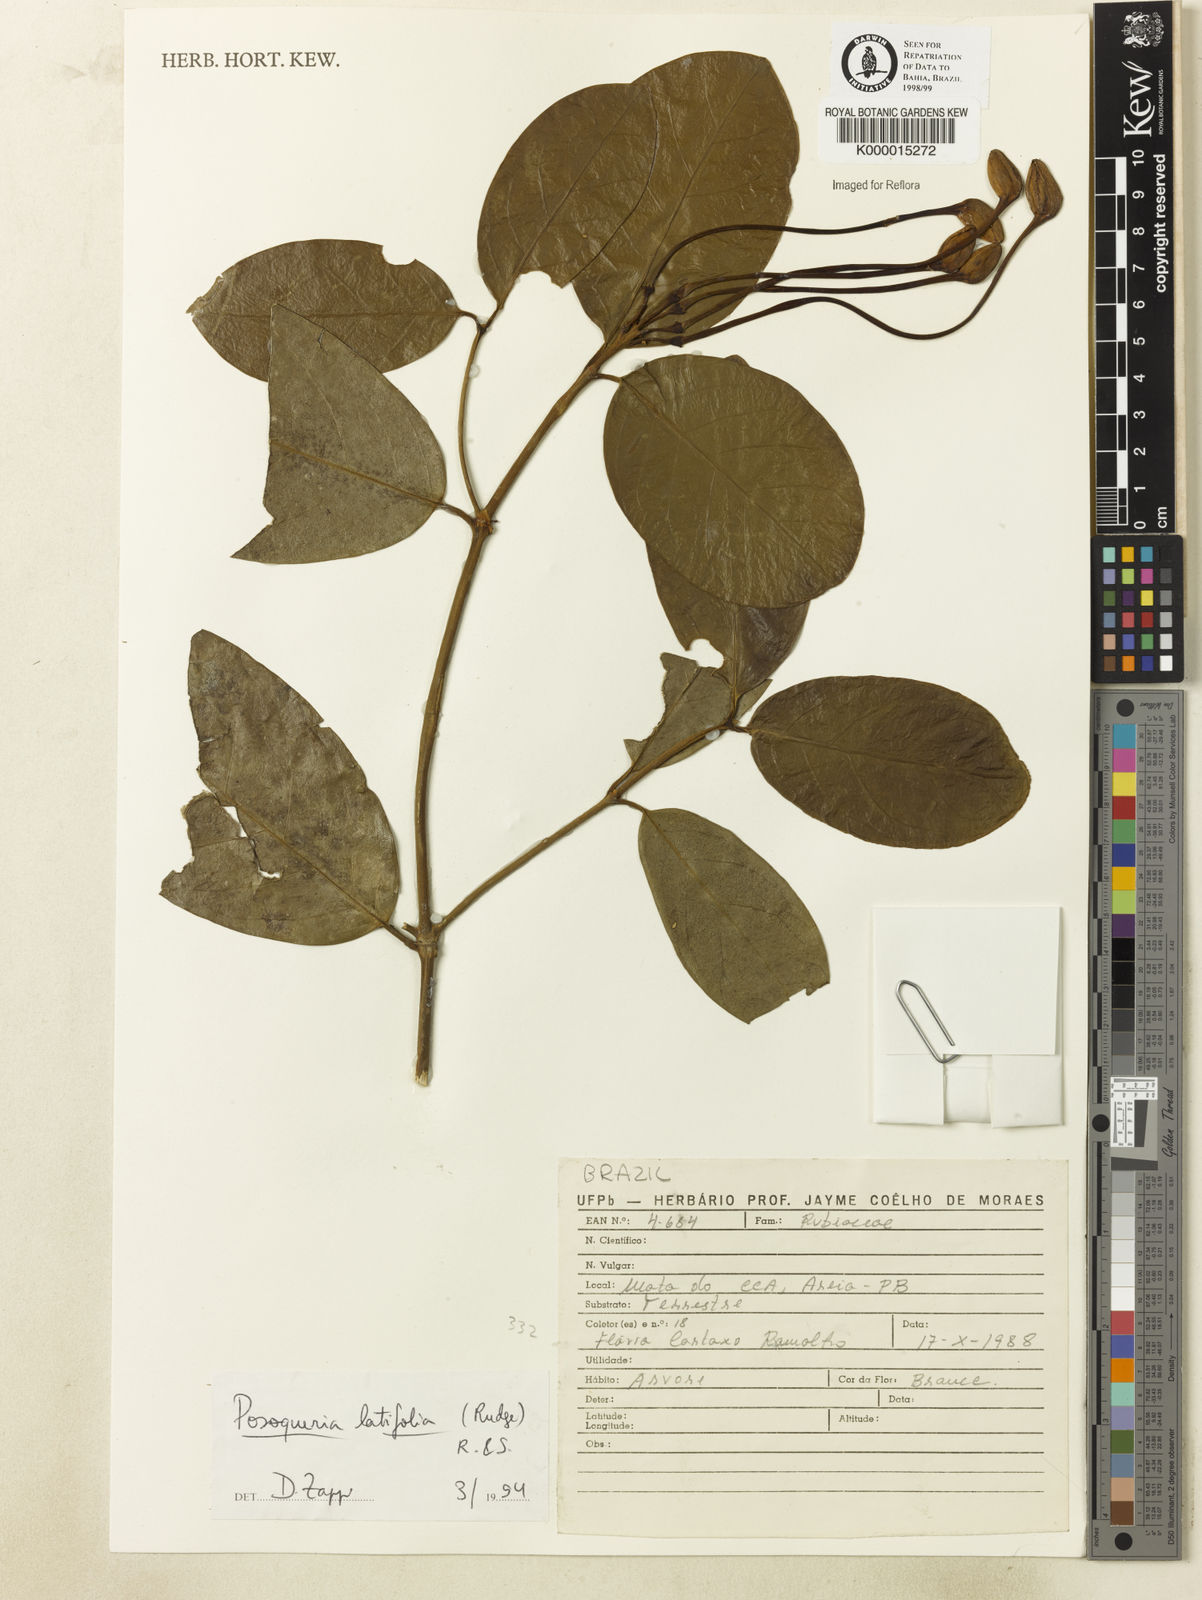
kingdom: Plantae
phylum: Tracheophyta
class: Magnoliopsida
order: Gentianales
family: Rubiaceae
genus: Posoqueria
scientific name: Posoqueria
